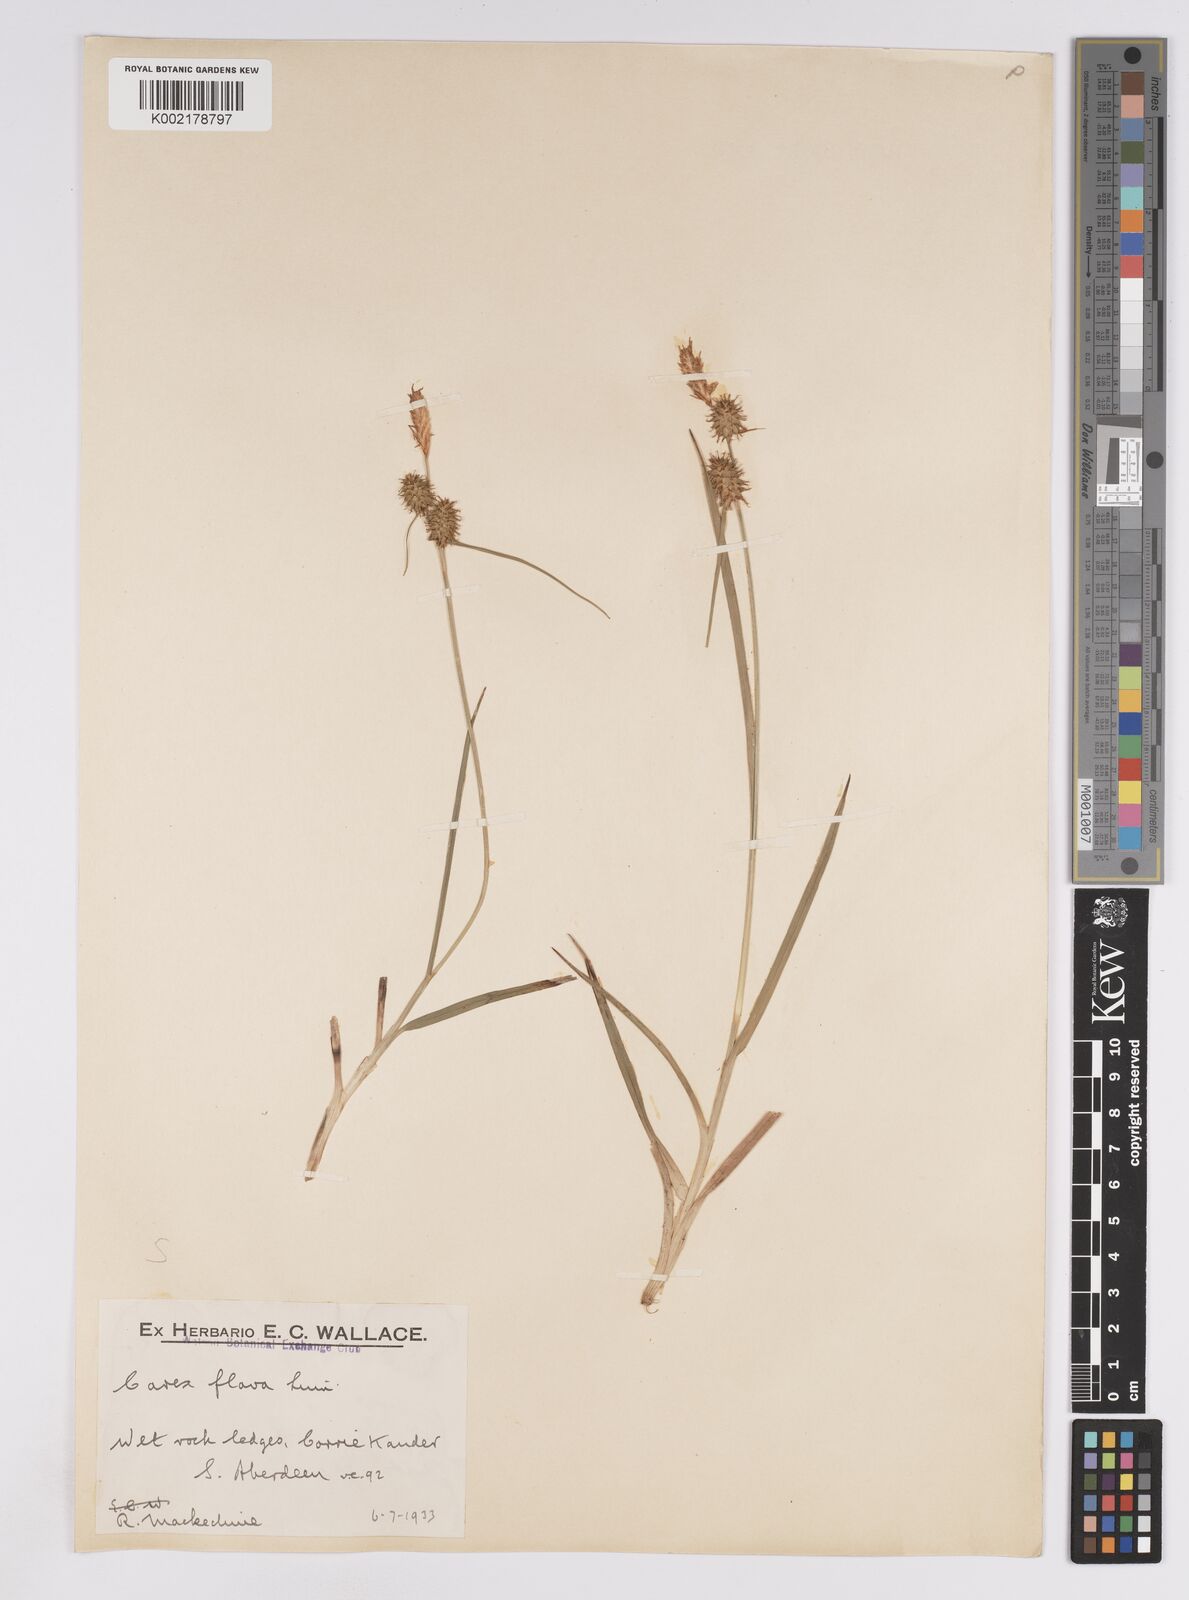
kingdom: Plantae
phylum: Tracheophyta
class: Liliopsida
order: Poales
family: Cyperaceae
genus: Carex
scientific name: Carex lepidocarpa
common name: Long-stalked yellow-sedge
